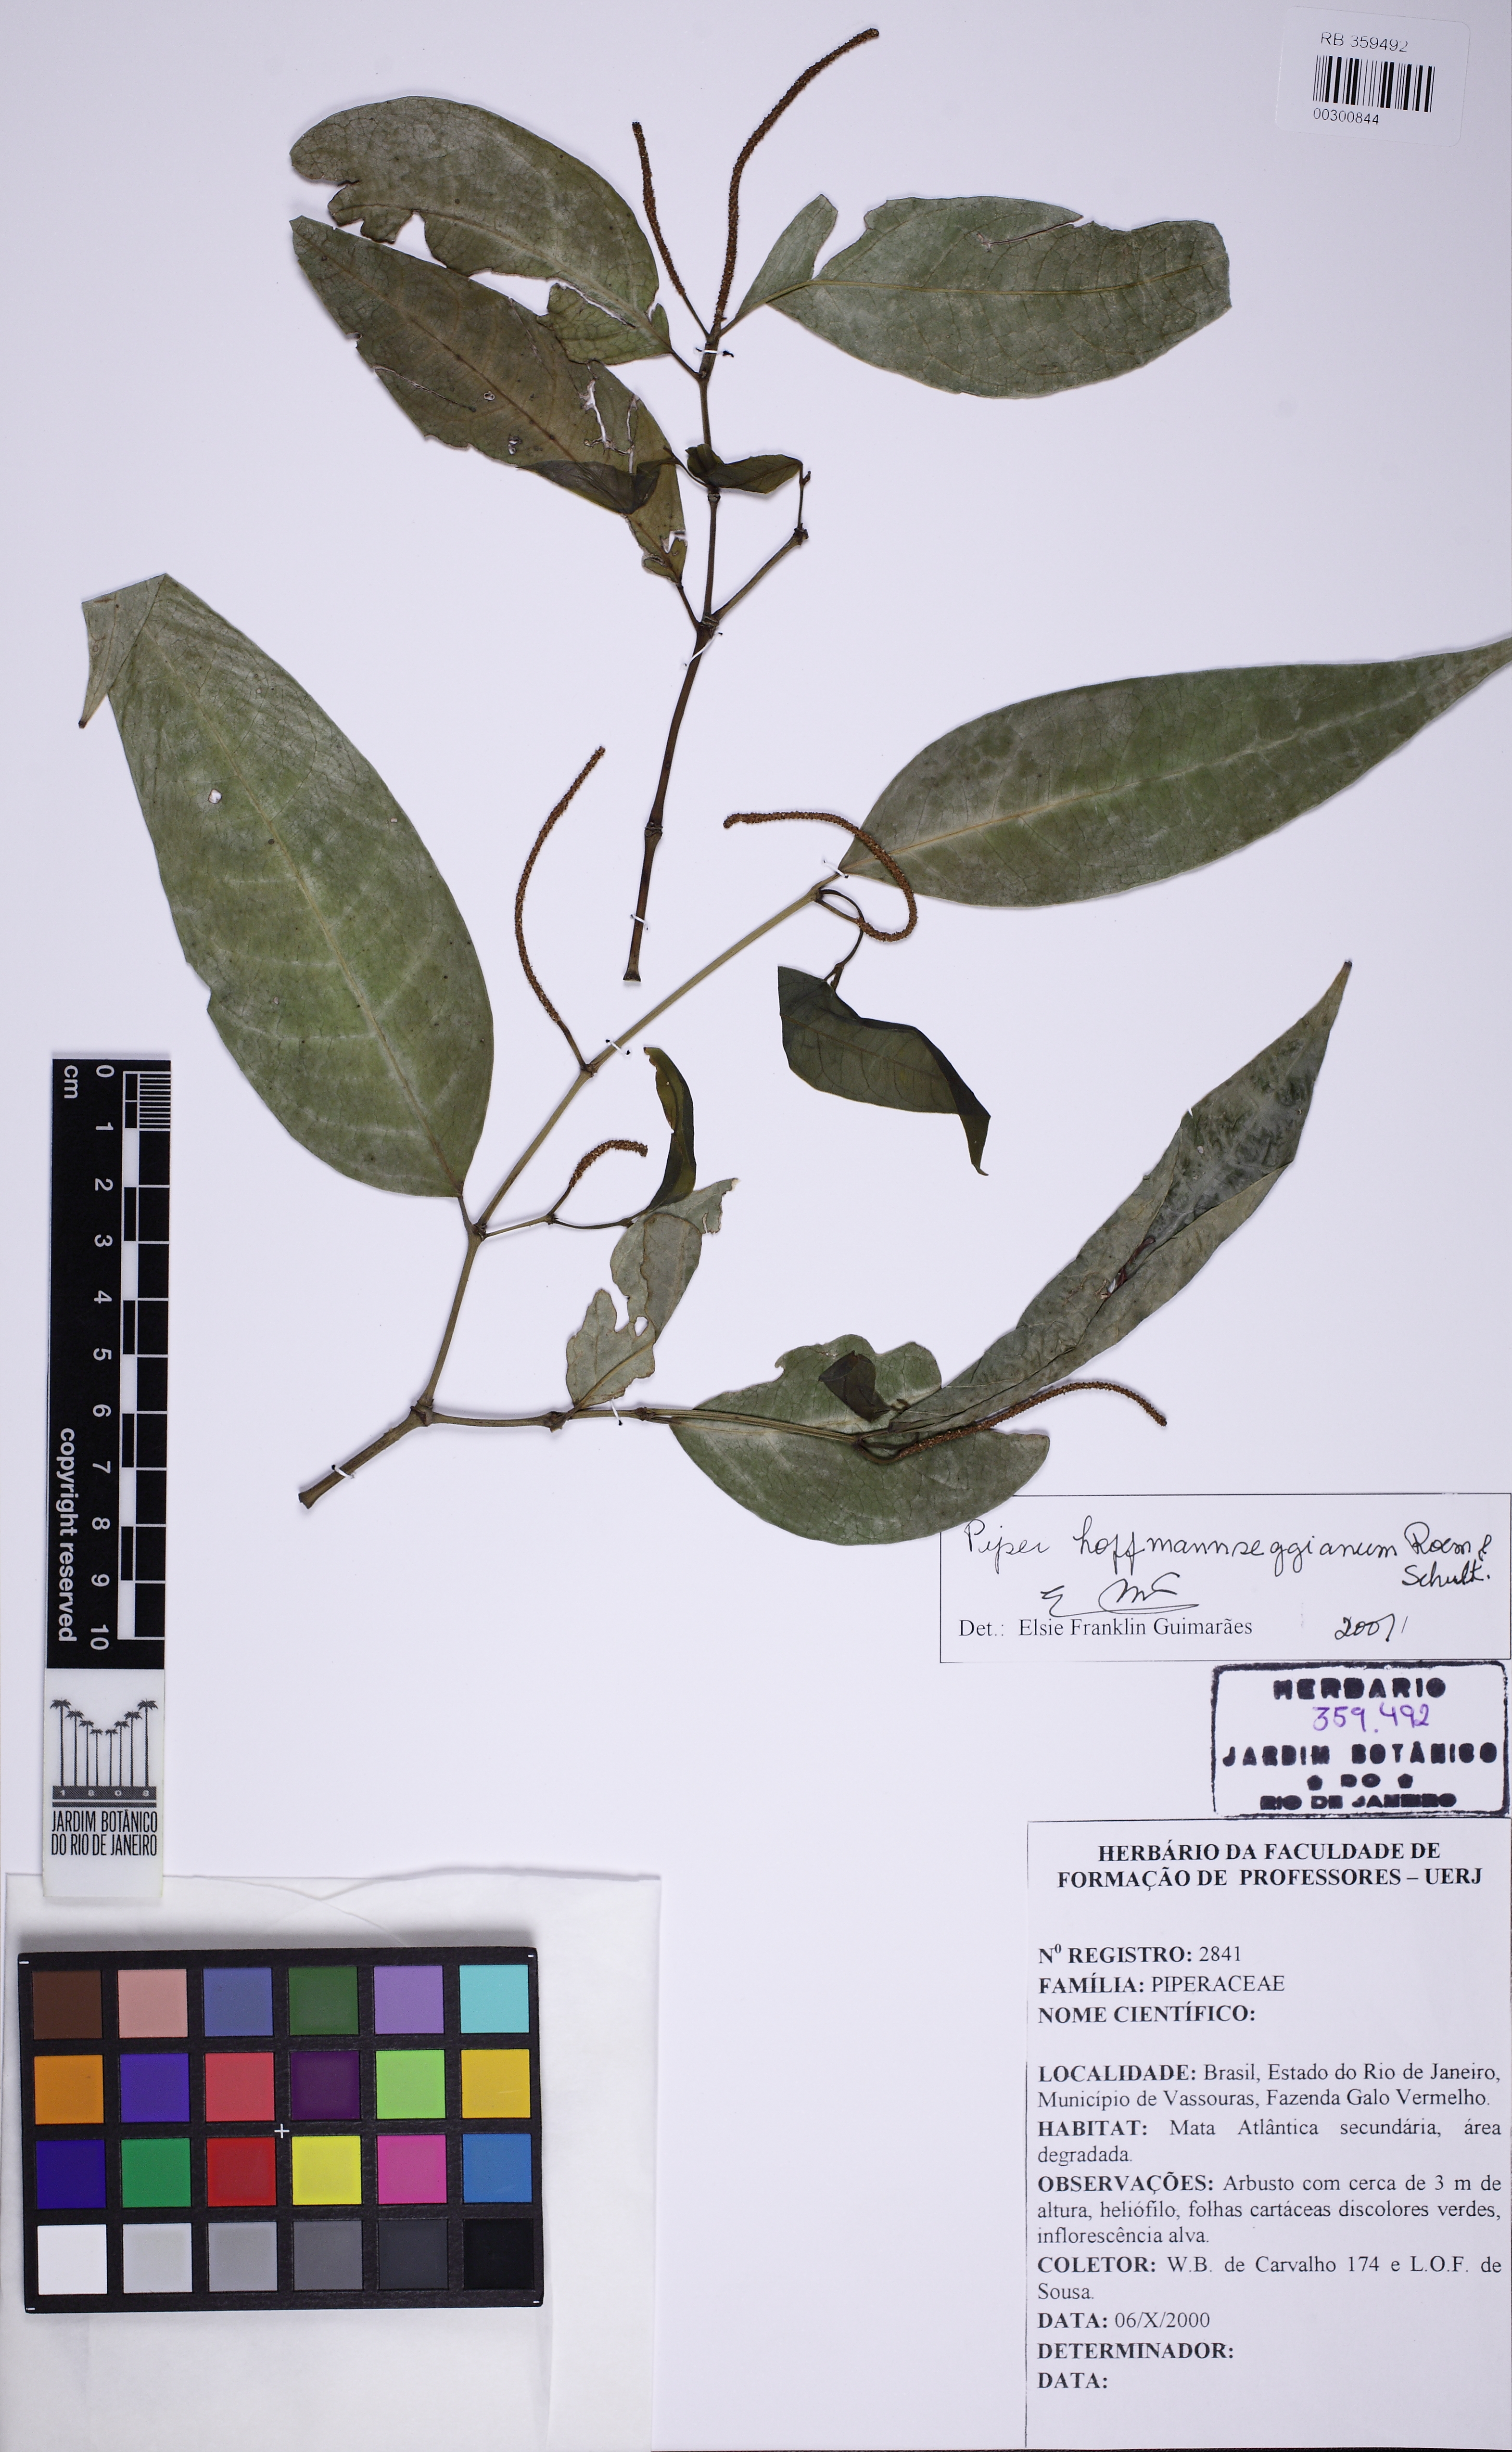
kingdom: Plantae
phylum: Tracheophyta
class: Magnoliopsida
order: Piperales
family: Piperaceae
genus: Piper
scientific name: Piper hoffmannseggianum
